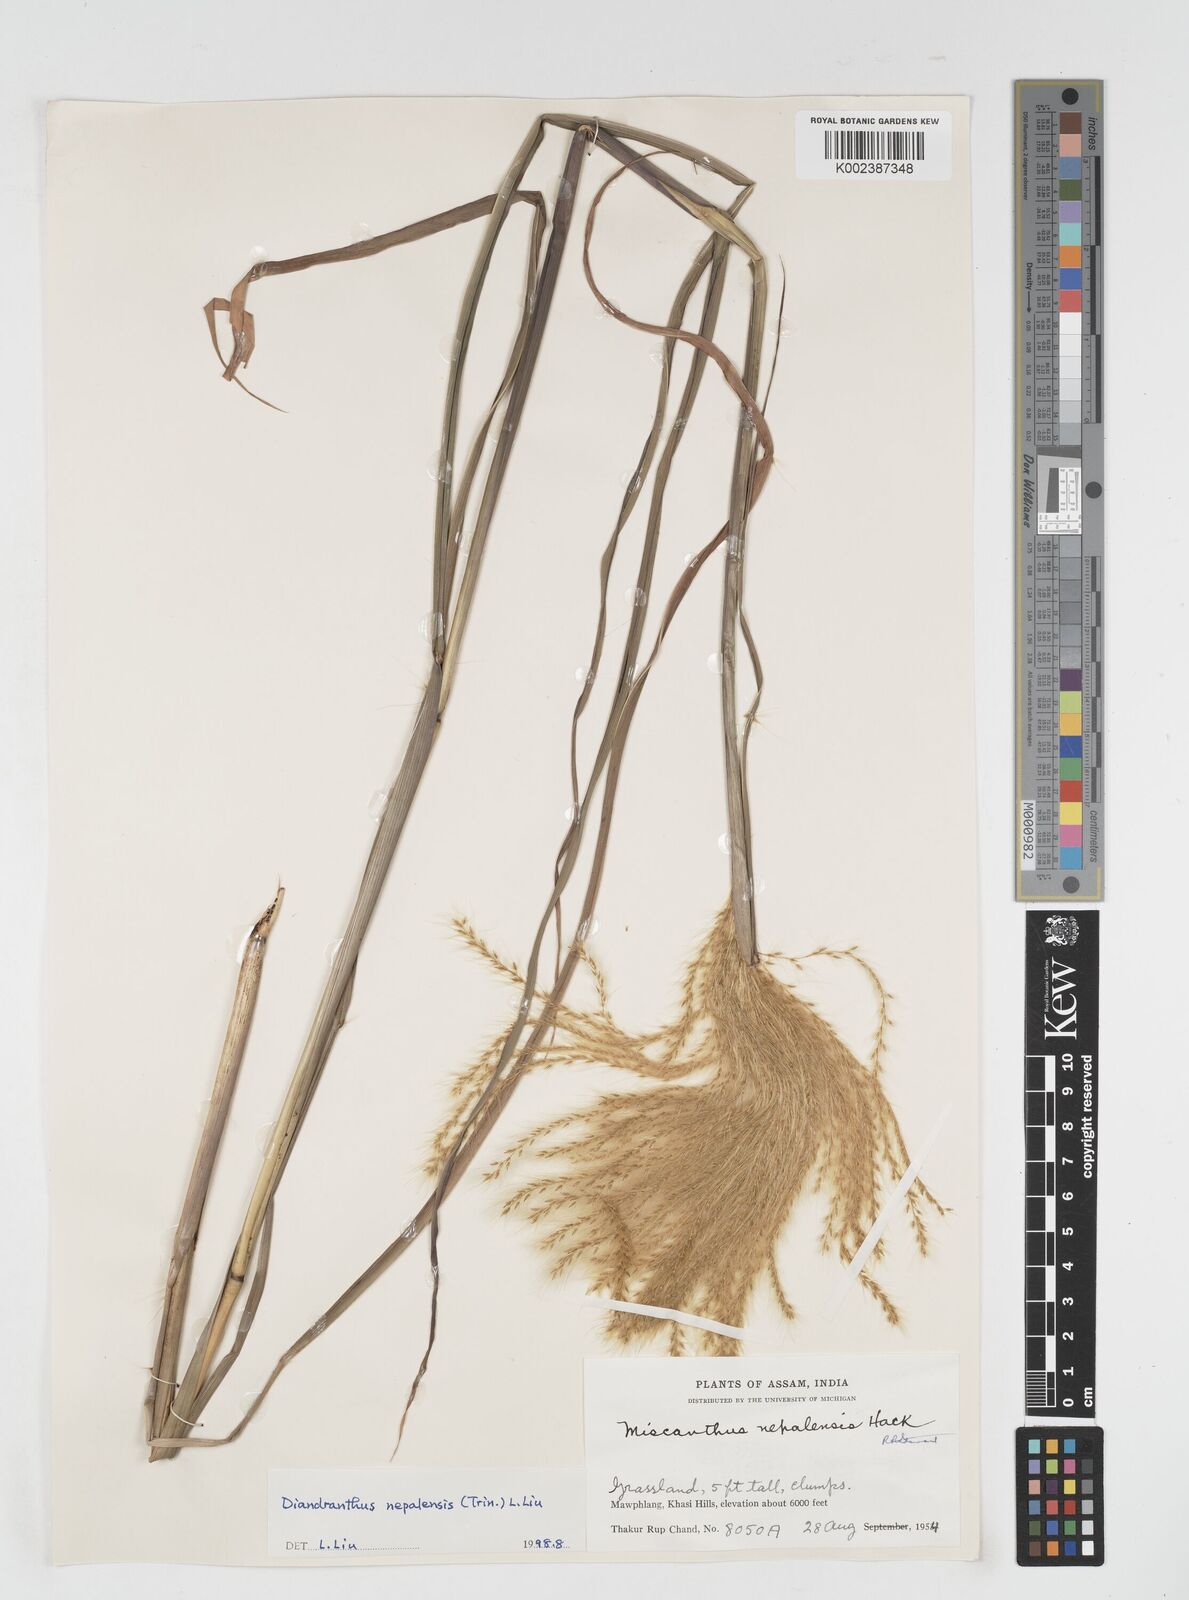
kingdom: Plantae
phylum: Tracheophyta
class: Liliopsida
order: Poales
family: Poaceae
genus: Miscanthus
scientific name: Miscanthus nepalensis
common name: Nepal silver grass
